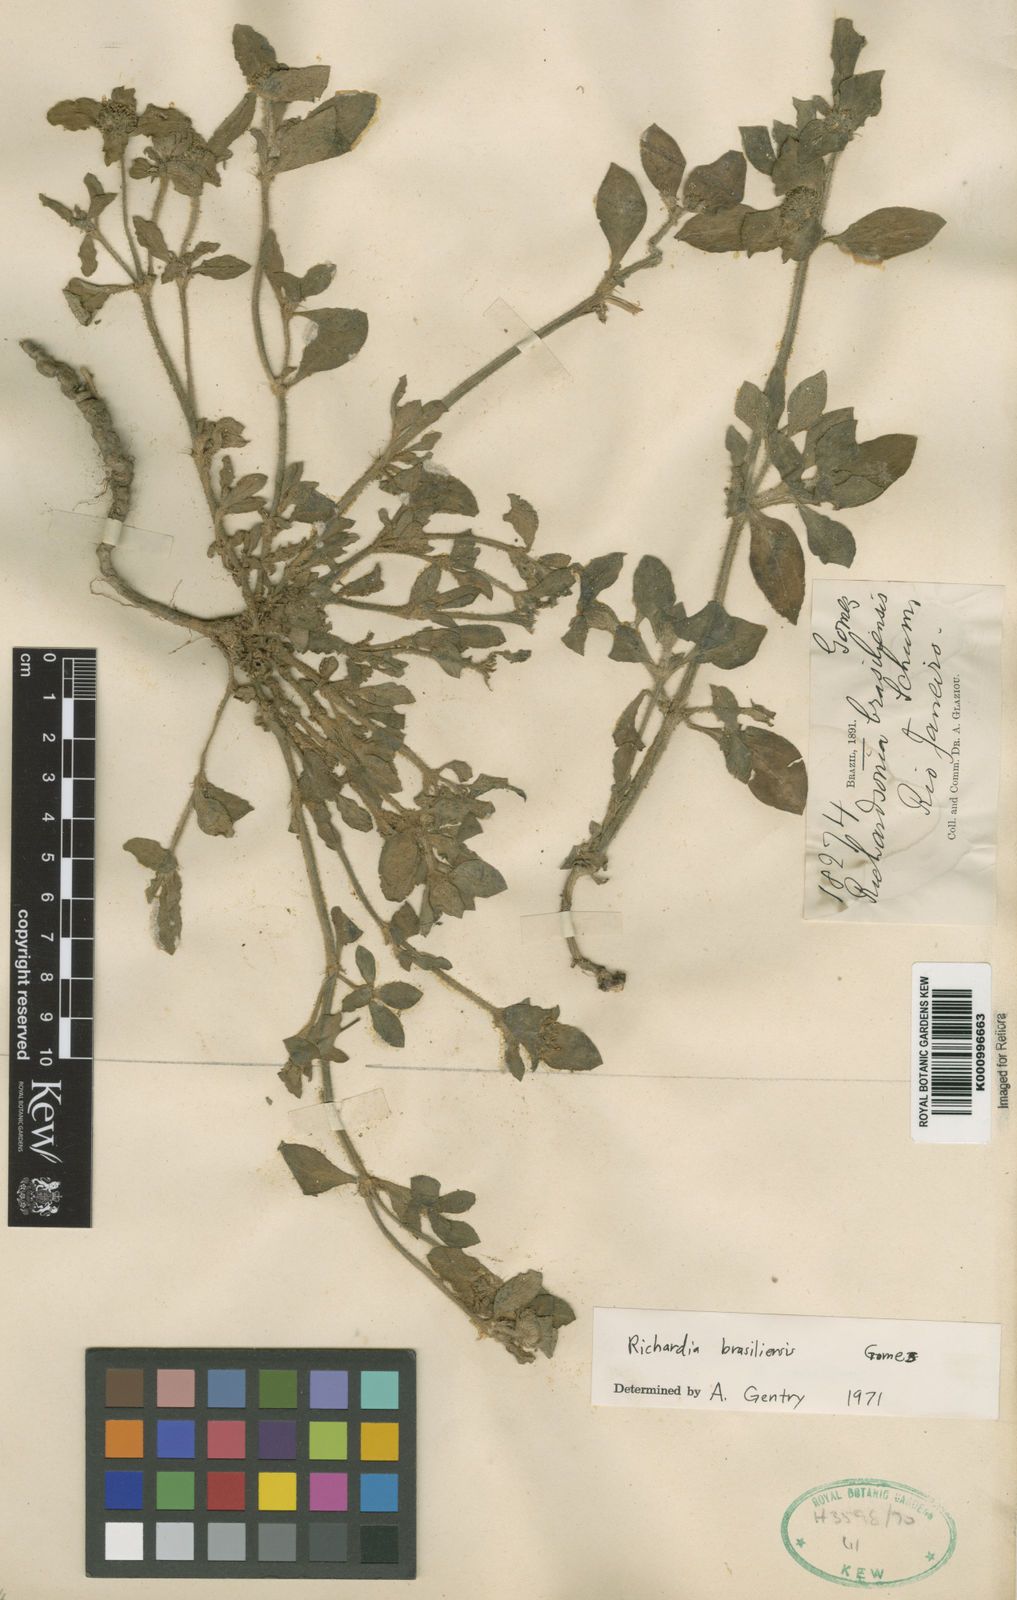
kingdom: Plantae
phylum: Tracheophyta
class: Magnoliopsida
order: Gentianales
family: Rubiaceae
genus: Richardia
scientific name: Richardia brasiliensis
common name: Tropical mexican clover
